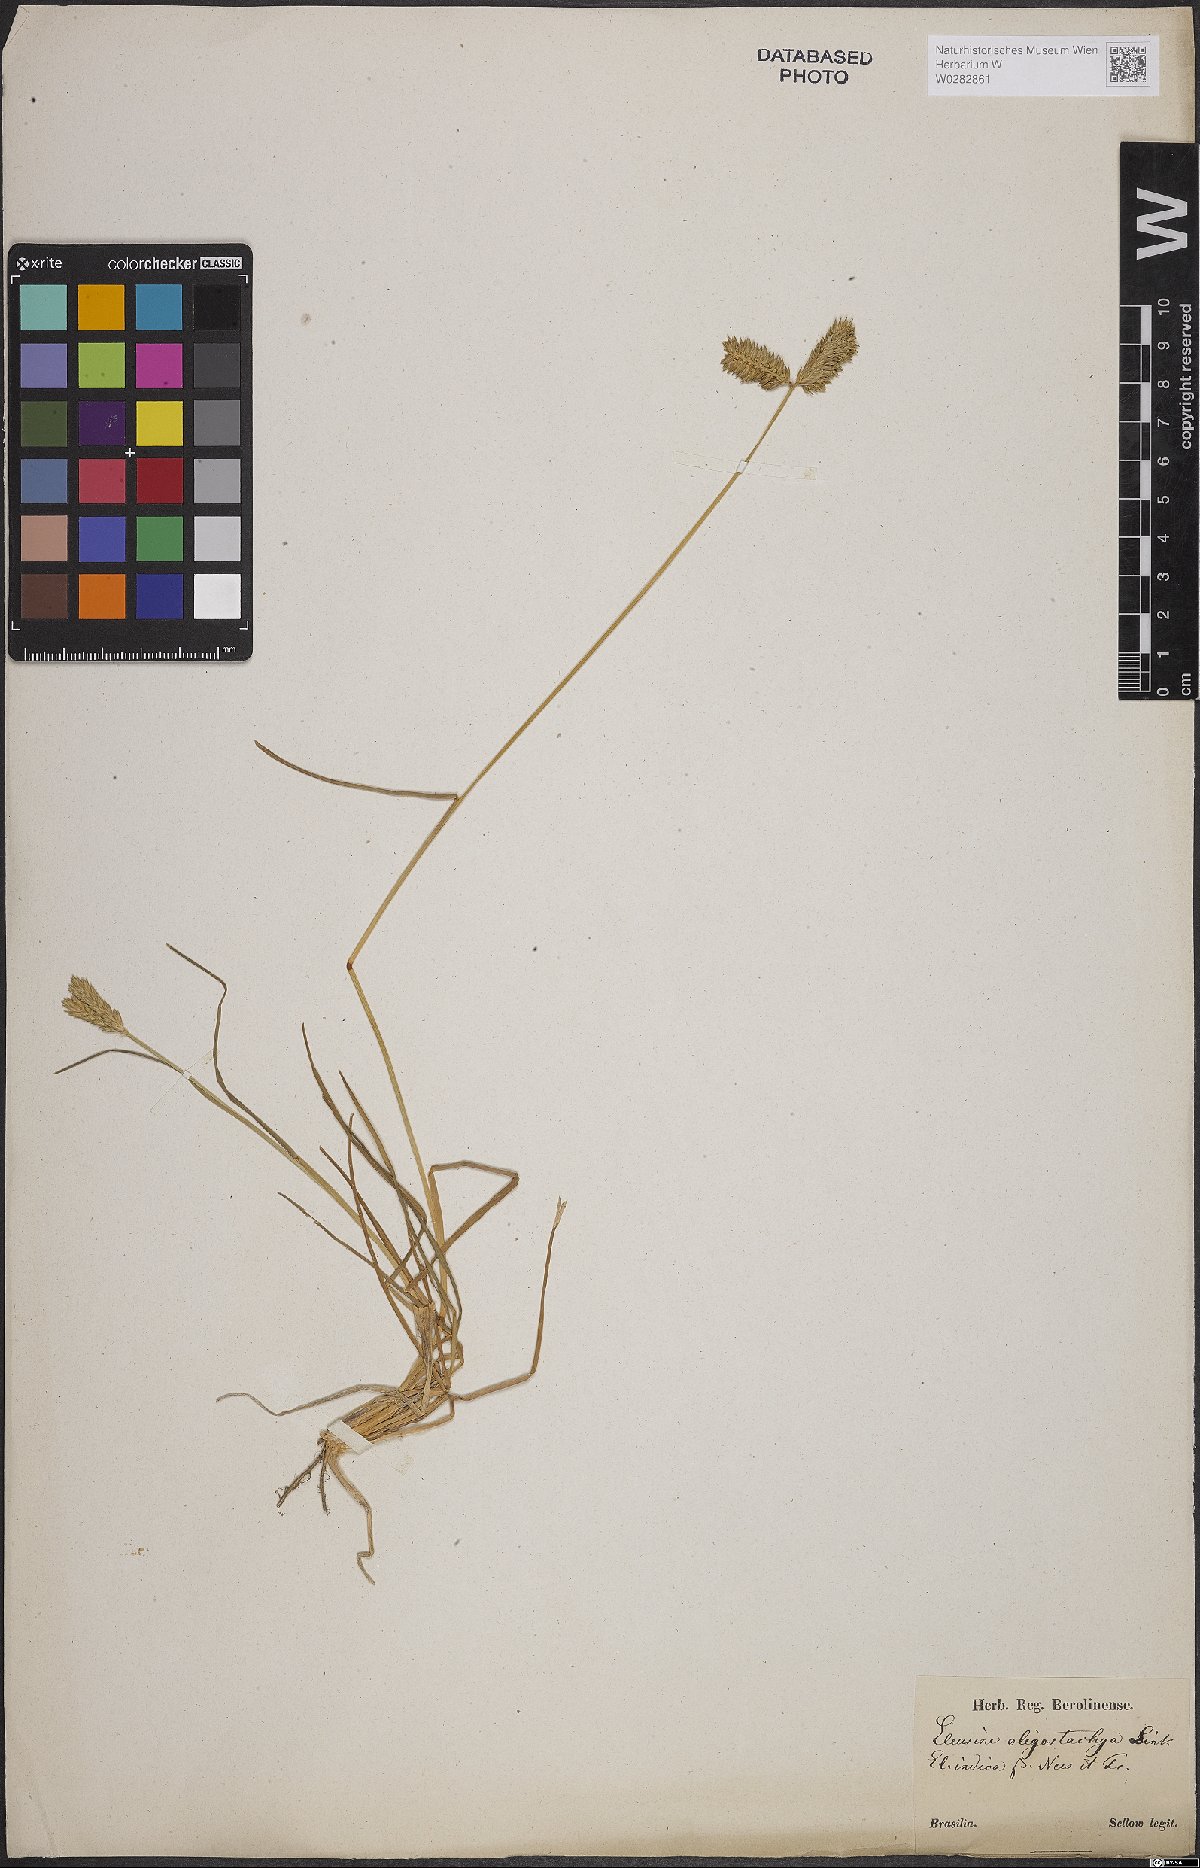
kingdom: Plantae
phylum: Tracheophyta
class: Liliopsida
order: Poales
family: Poaceae
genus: Eleusine
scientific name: Eleusine tristachya
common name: American yard-grass
